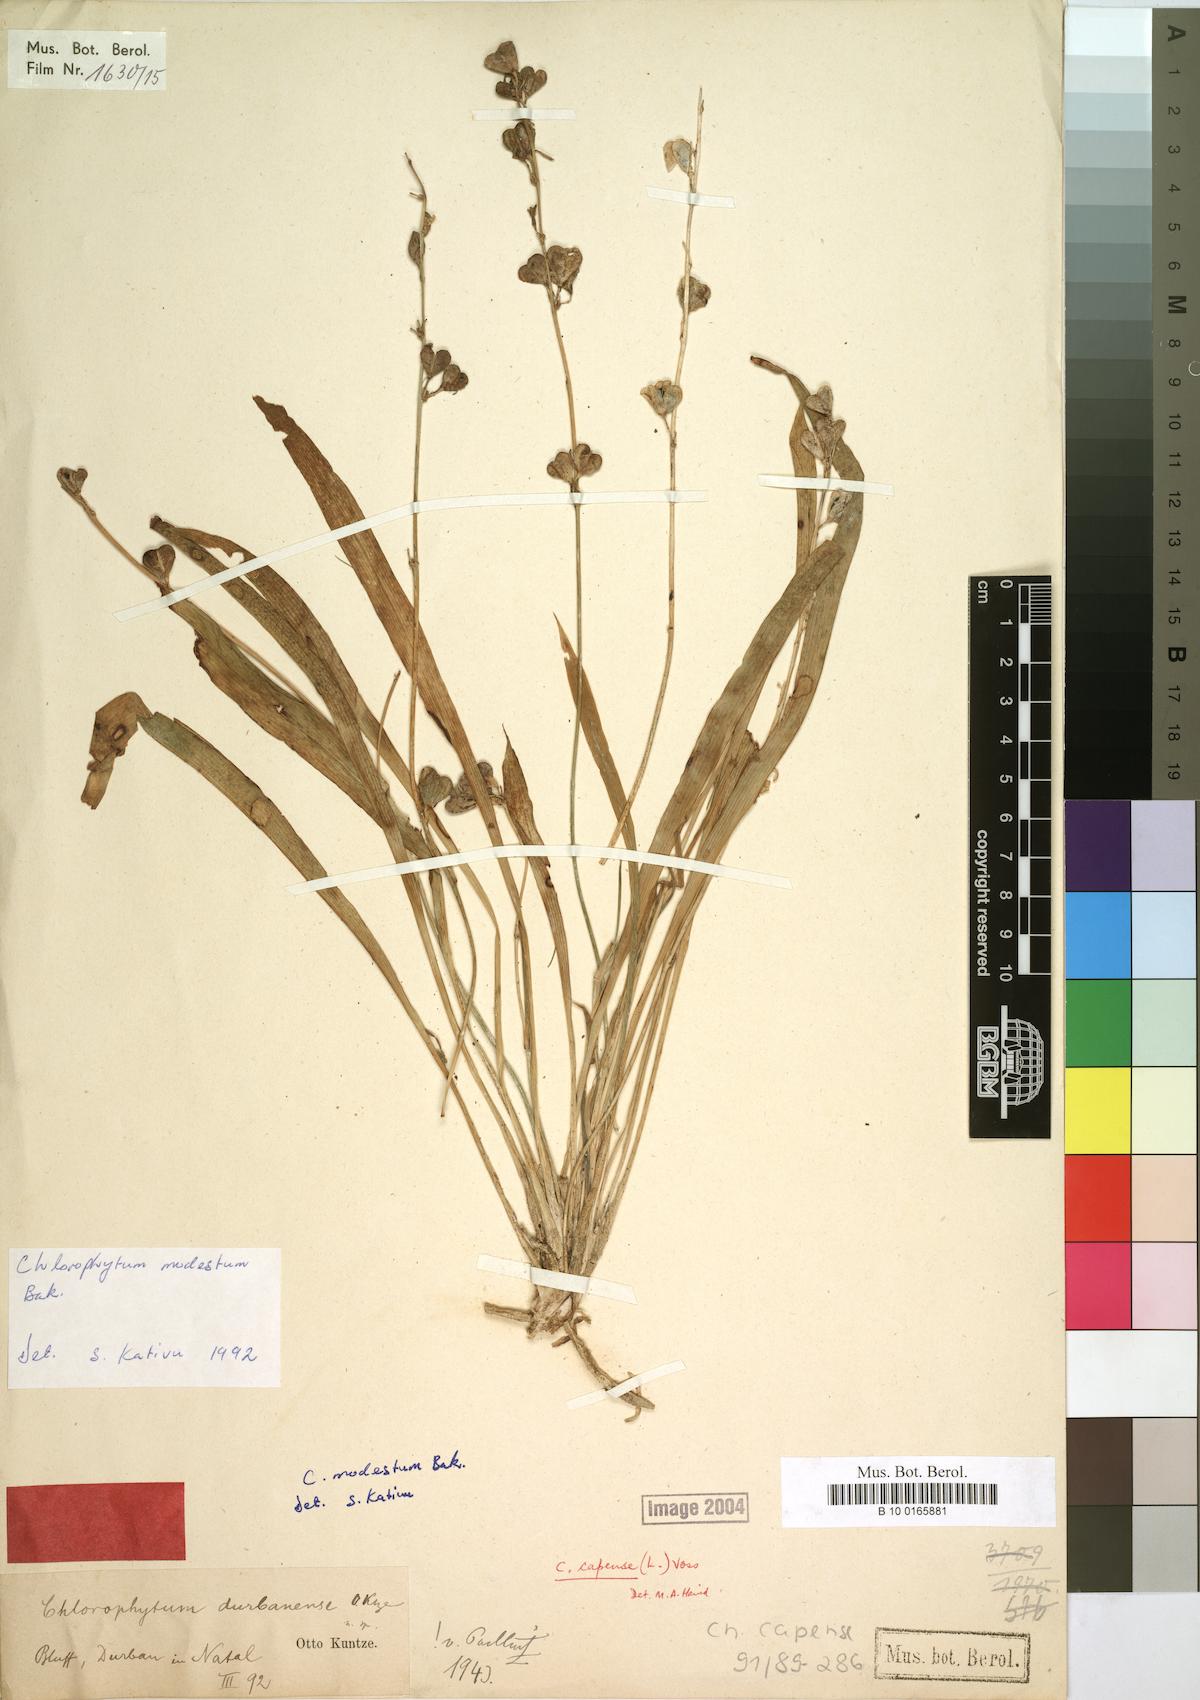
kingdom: Plantae
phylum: Tracheophyta
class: Liliopsida
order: Asparagales
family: Asparagaceae
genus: Chlorophytum
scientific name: Chlorophytum modestum
